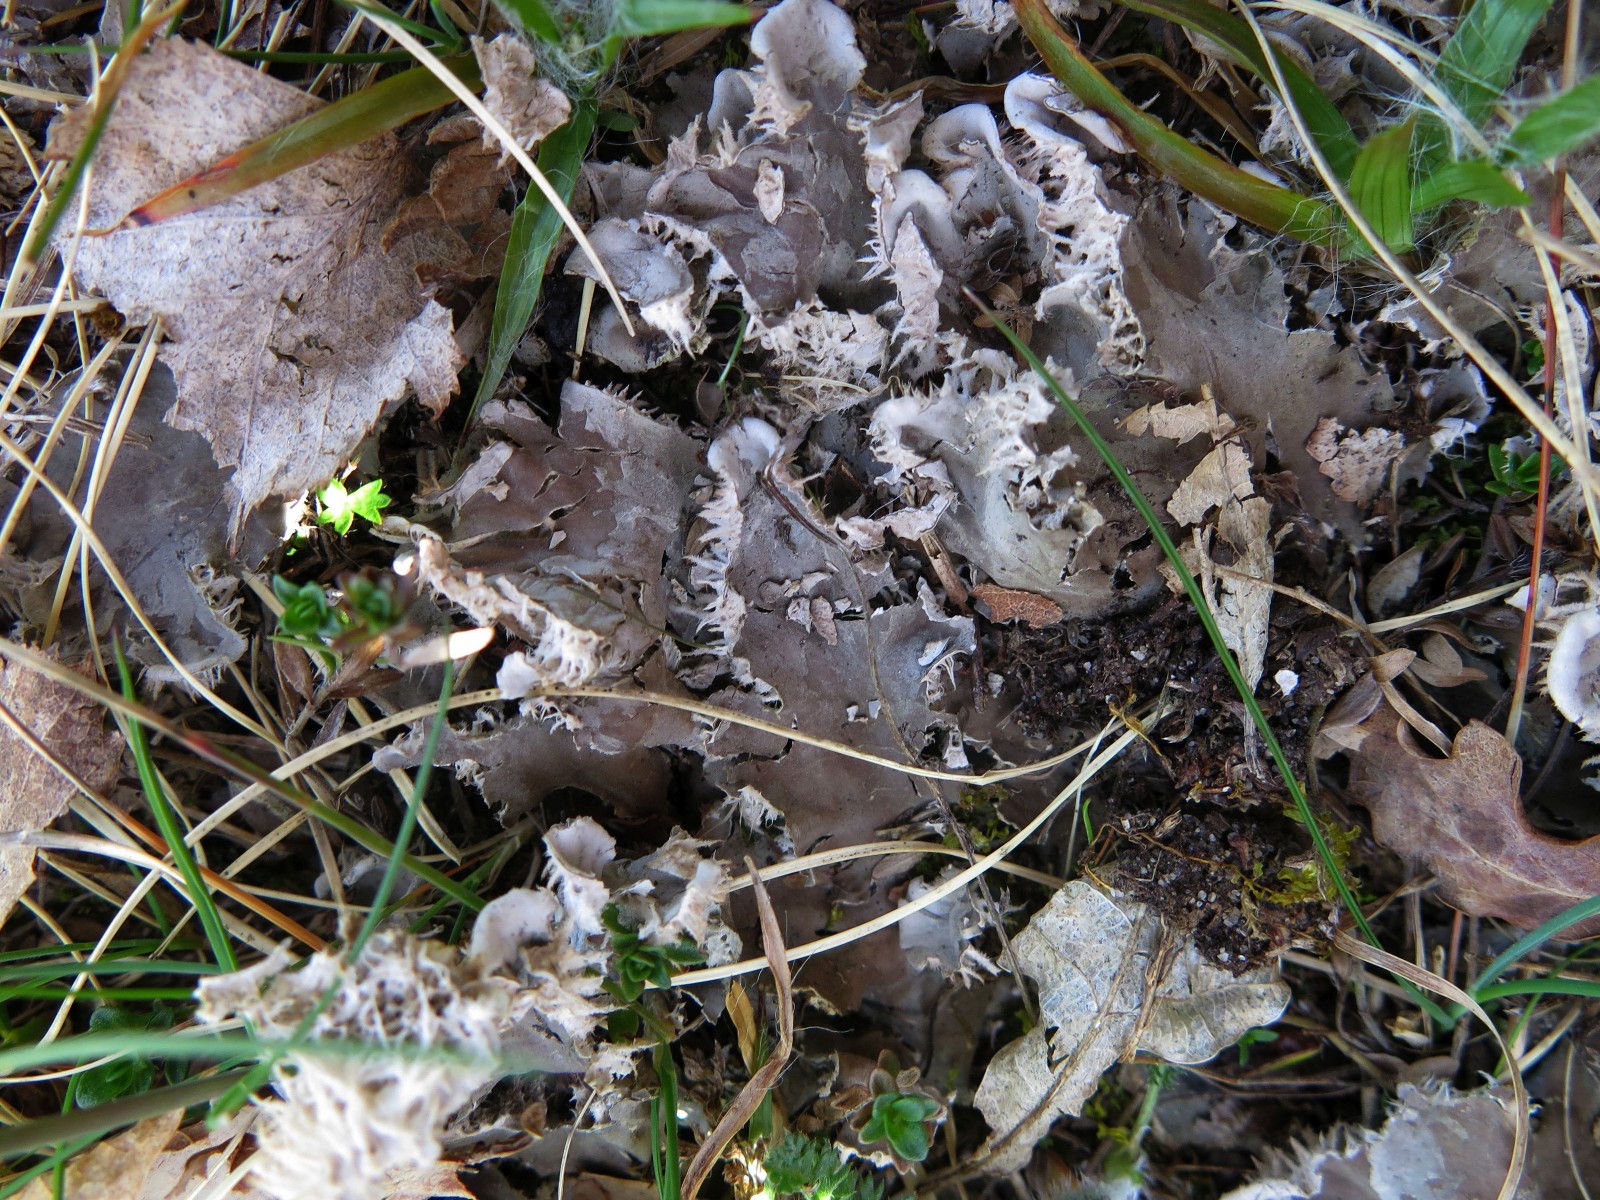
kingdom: Fungi
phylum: Ascomycota
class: Lecanoromycetes
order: Peltigerales
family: Peltigeraceae
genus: Peltigera
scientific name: Peltigera canina
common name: hunde-skjoldlav
